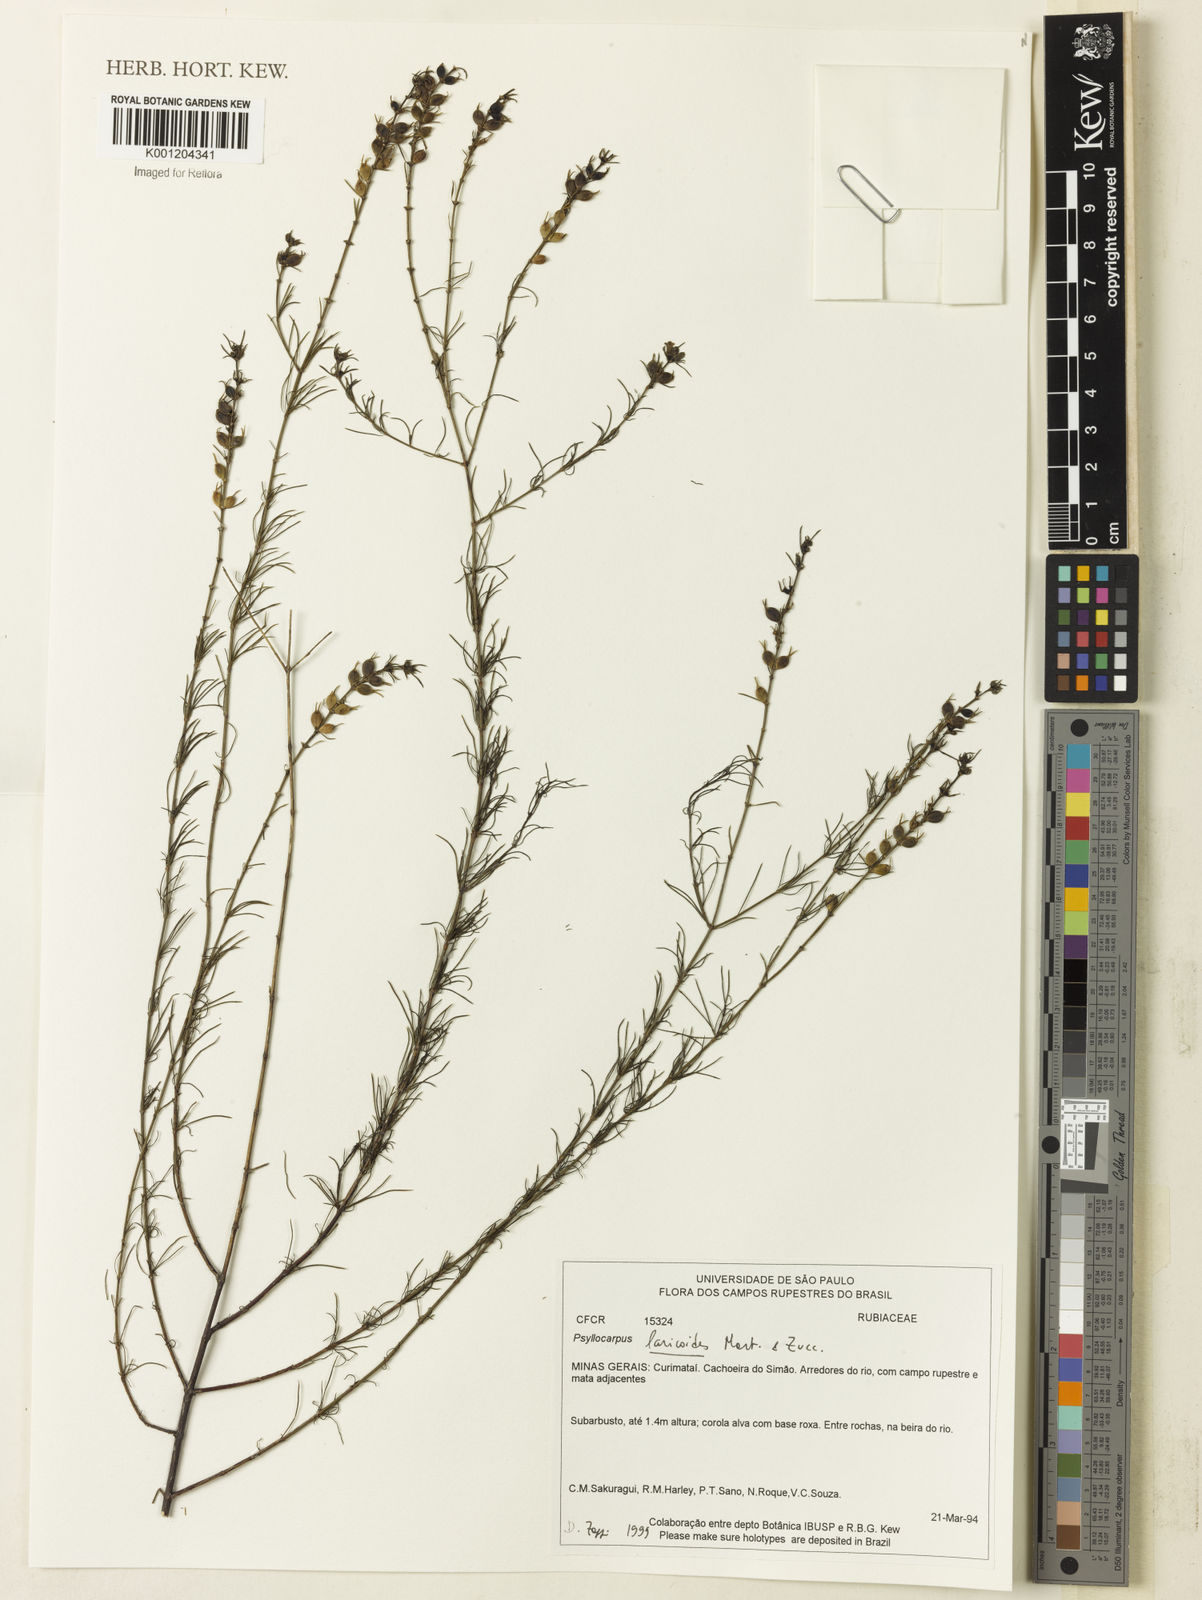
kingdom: Plantae
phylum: Tracheophyta
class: Magnoliopsida
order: Gentianales
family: Rubiaceae
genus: Psyllocarpus
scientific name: Psyllocarpus laricoides
